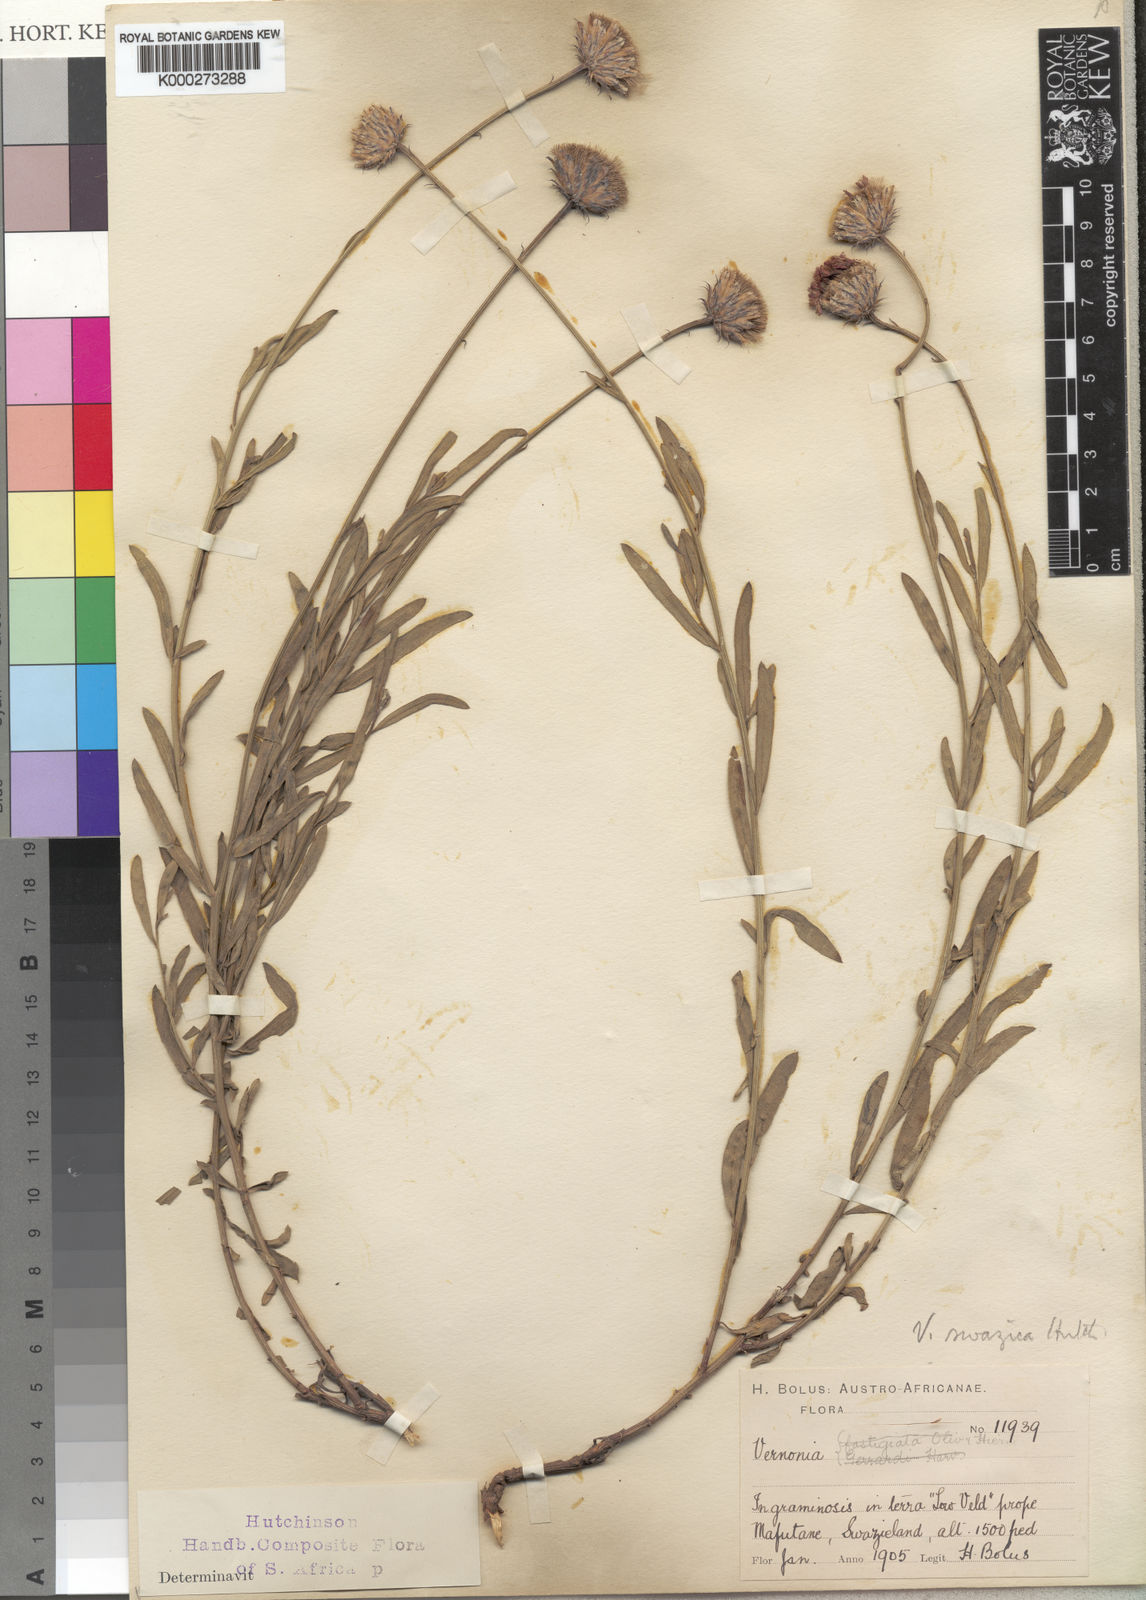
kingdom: Plantae
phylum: Tracheophyta
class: Magnoliopsida
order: Asterales
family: Asteraceae
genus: Vernonia
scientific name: Vernonia
